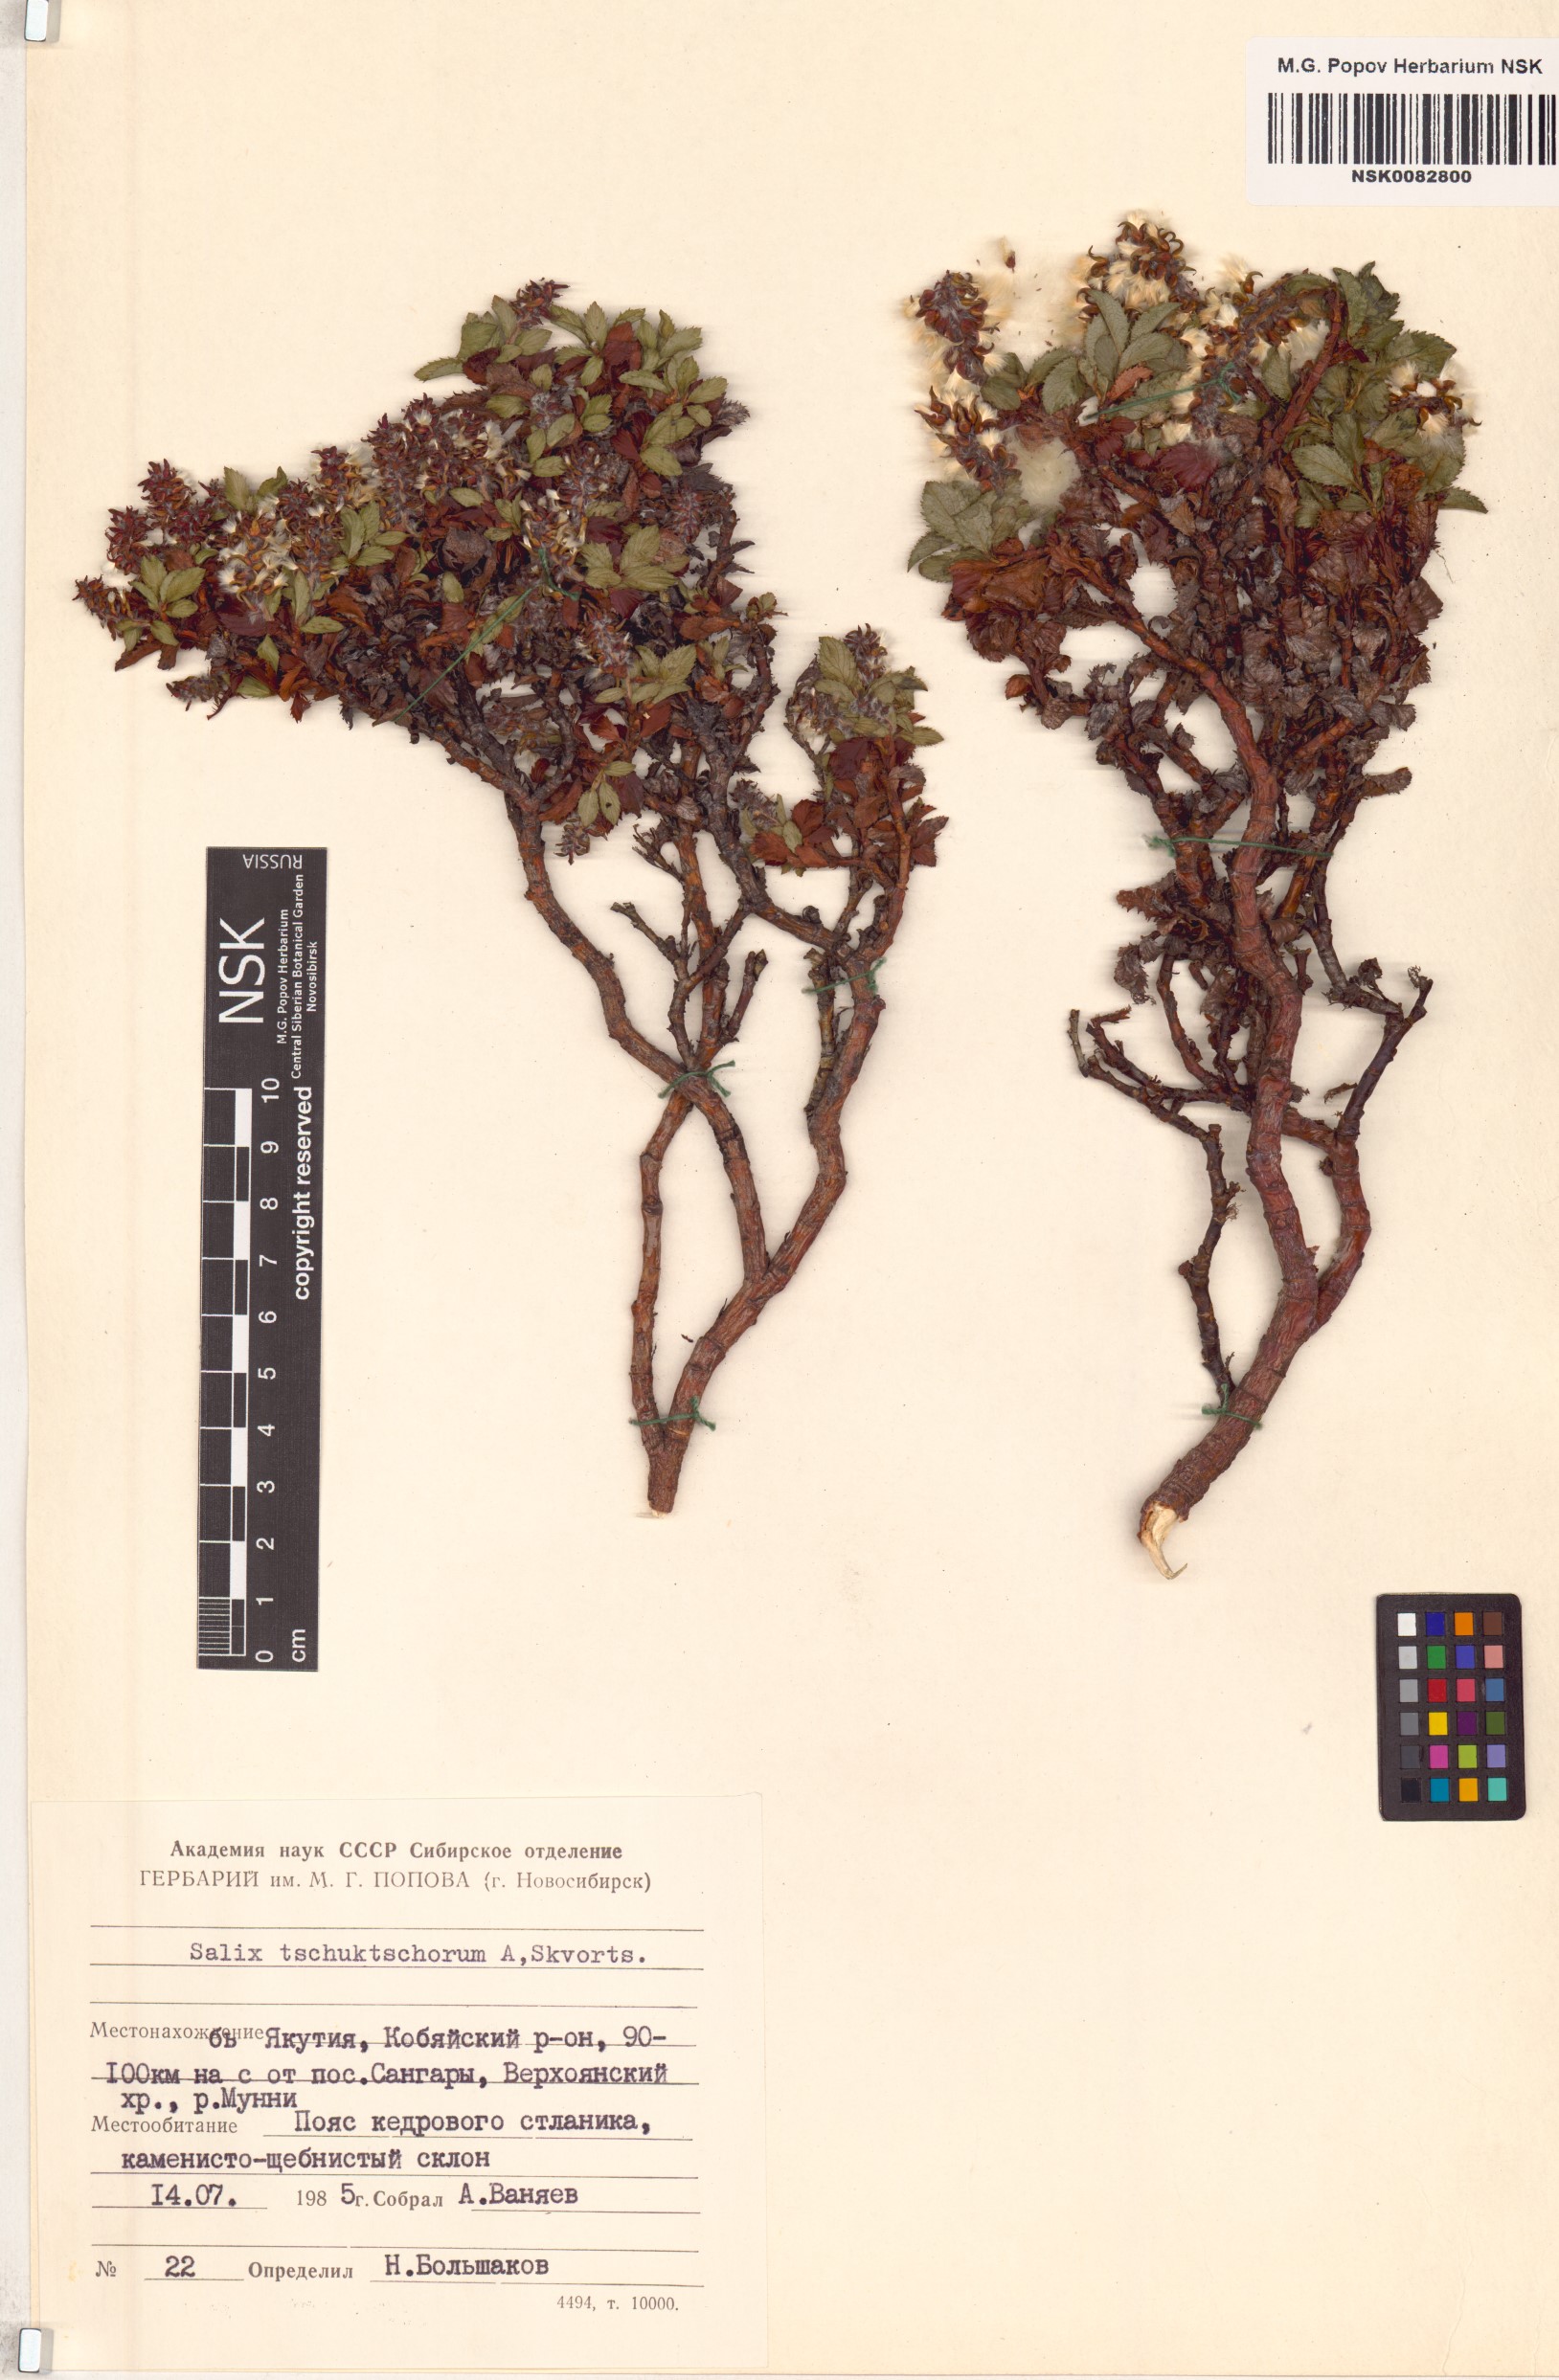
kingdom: Plantae
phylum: Tracheophyta
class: Magnoliopsida
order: Malpighiales
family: Salicaceae
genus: Salix
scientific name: Salix tschuktschorum
